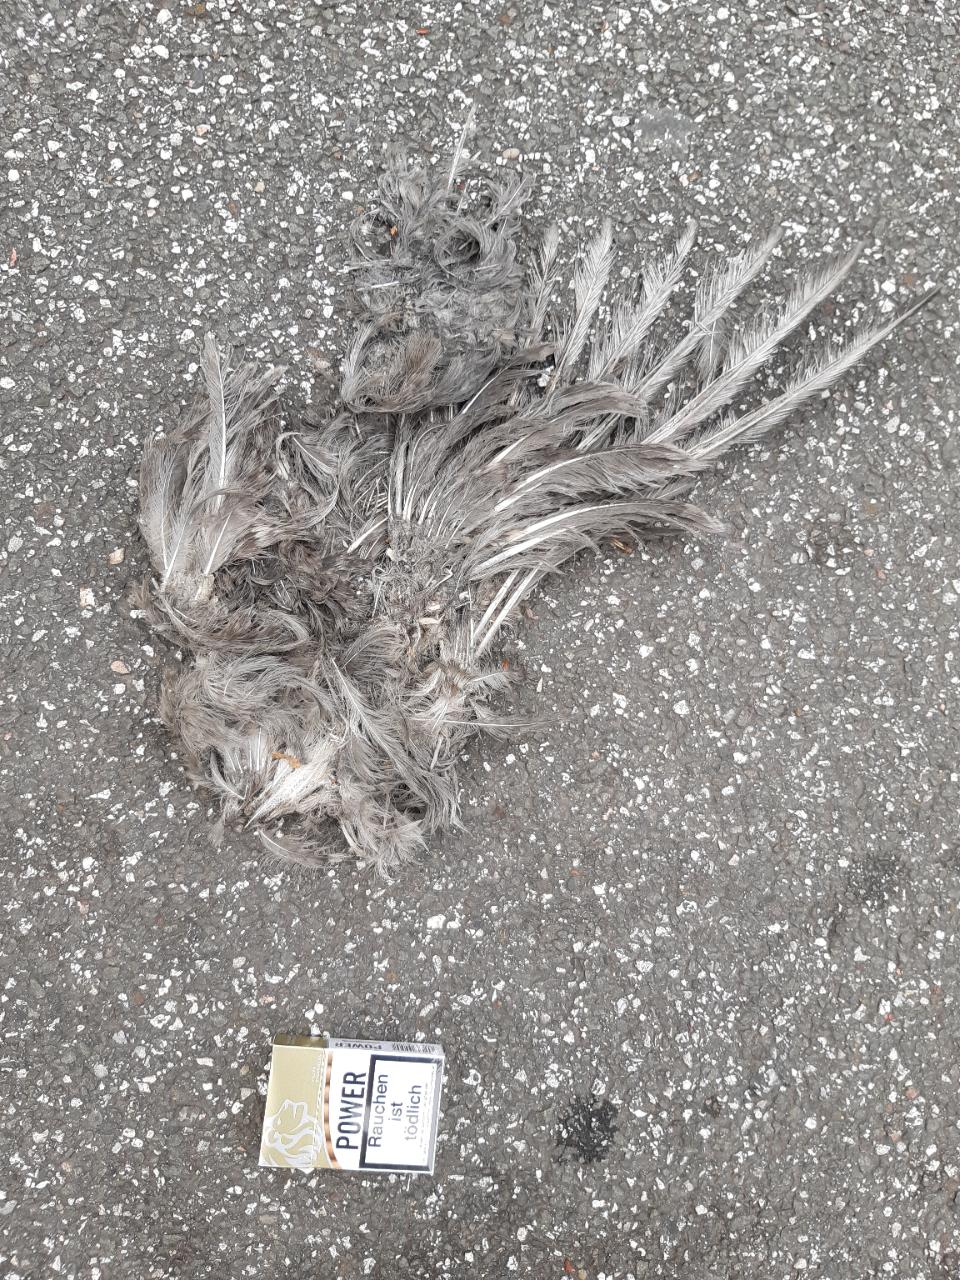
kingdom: Animalia
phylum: Chordata
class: Aves
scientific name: Aves
